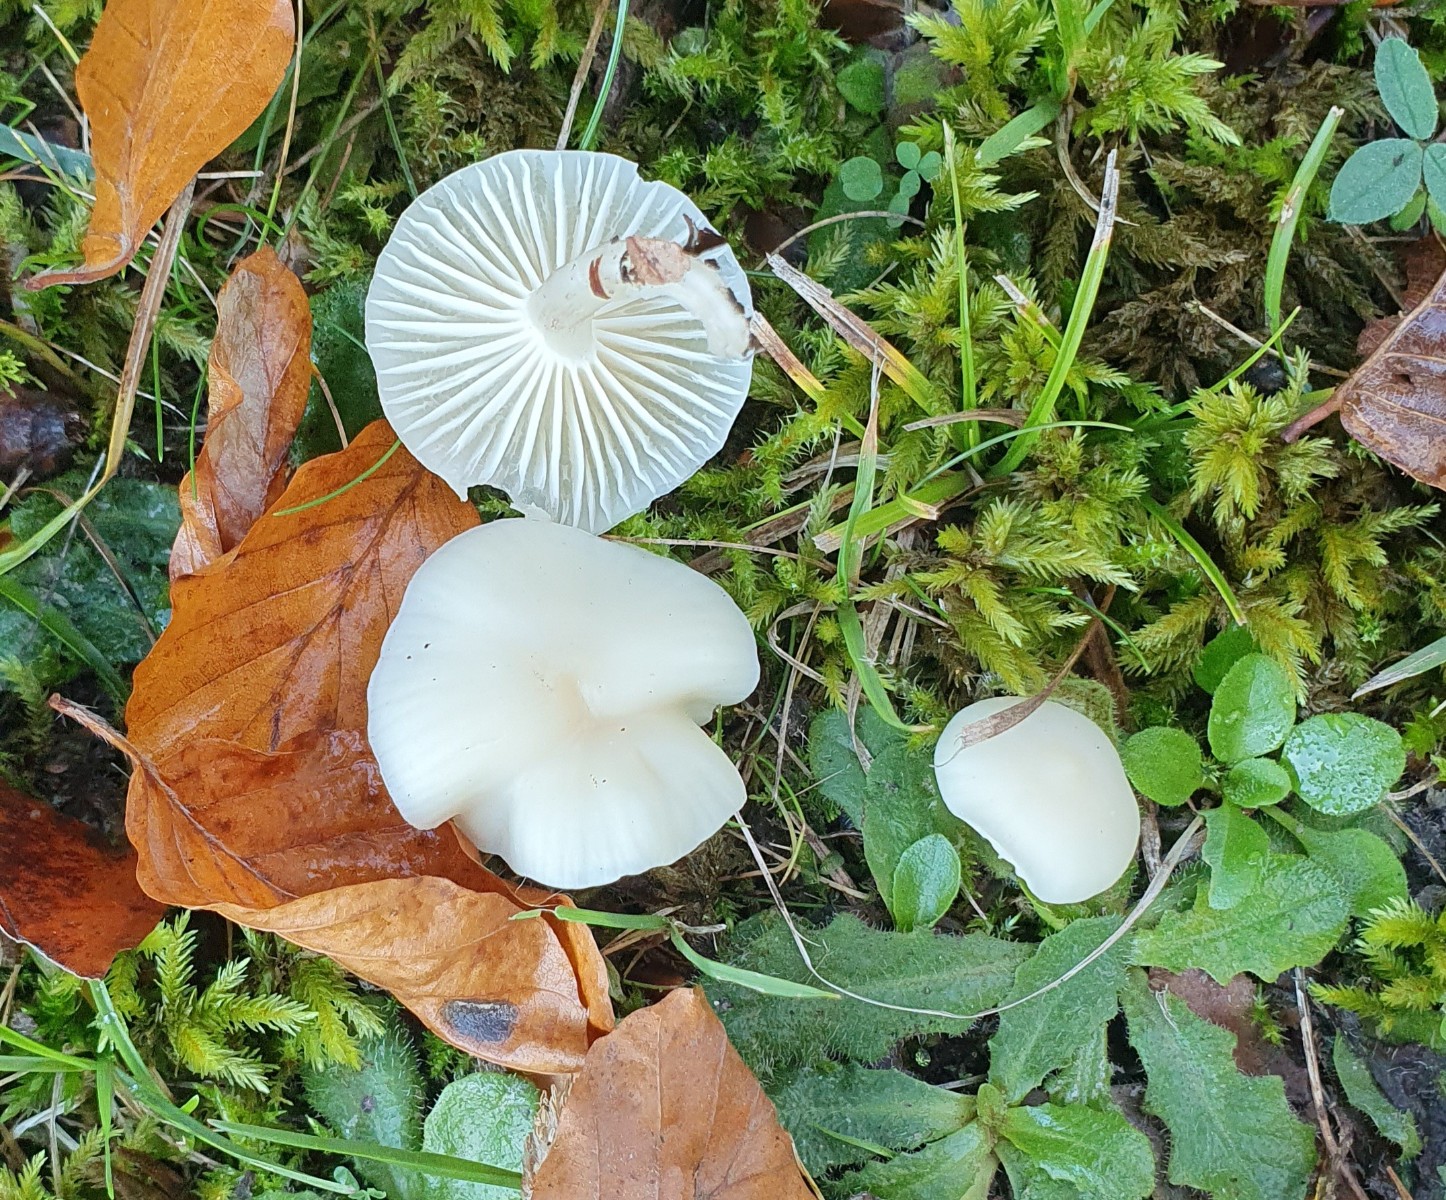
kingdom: Fungi
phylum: Basidiomycota
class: Agaricomycetes
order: Agaricales
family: Hygrophoraceae
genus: Cuphophyllus
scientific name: Cuphophyllus virgineus
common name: snehvid vokshat
